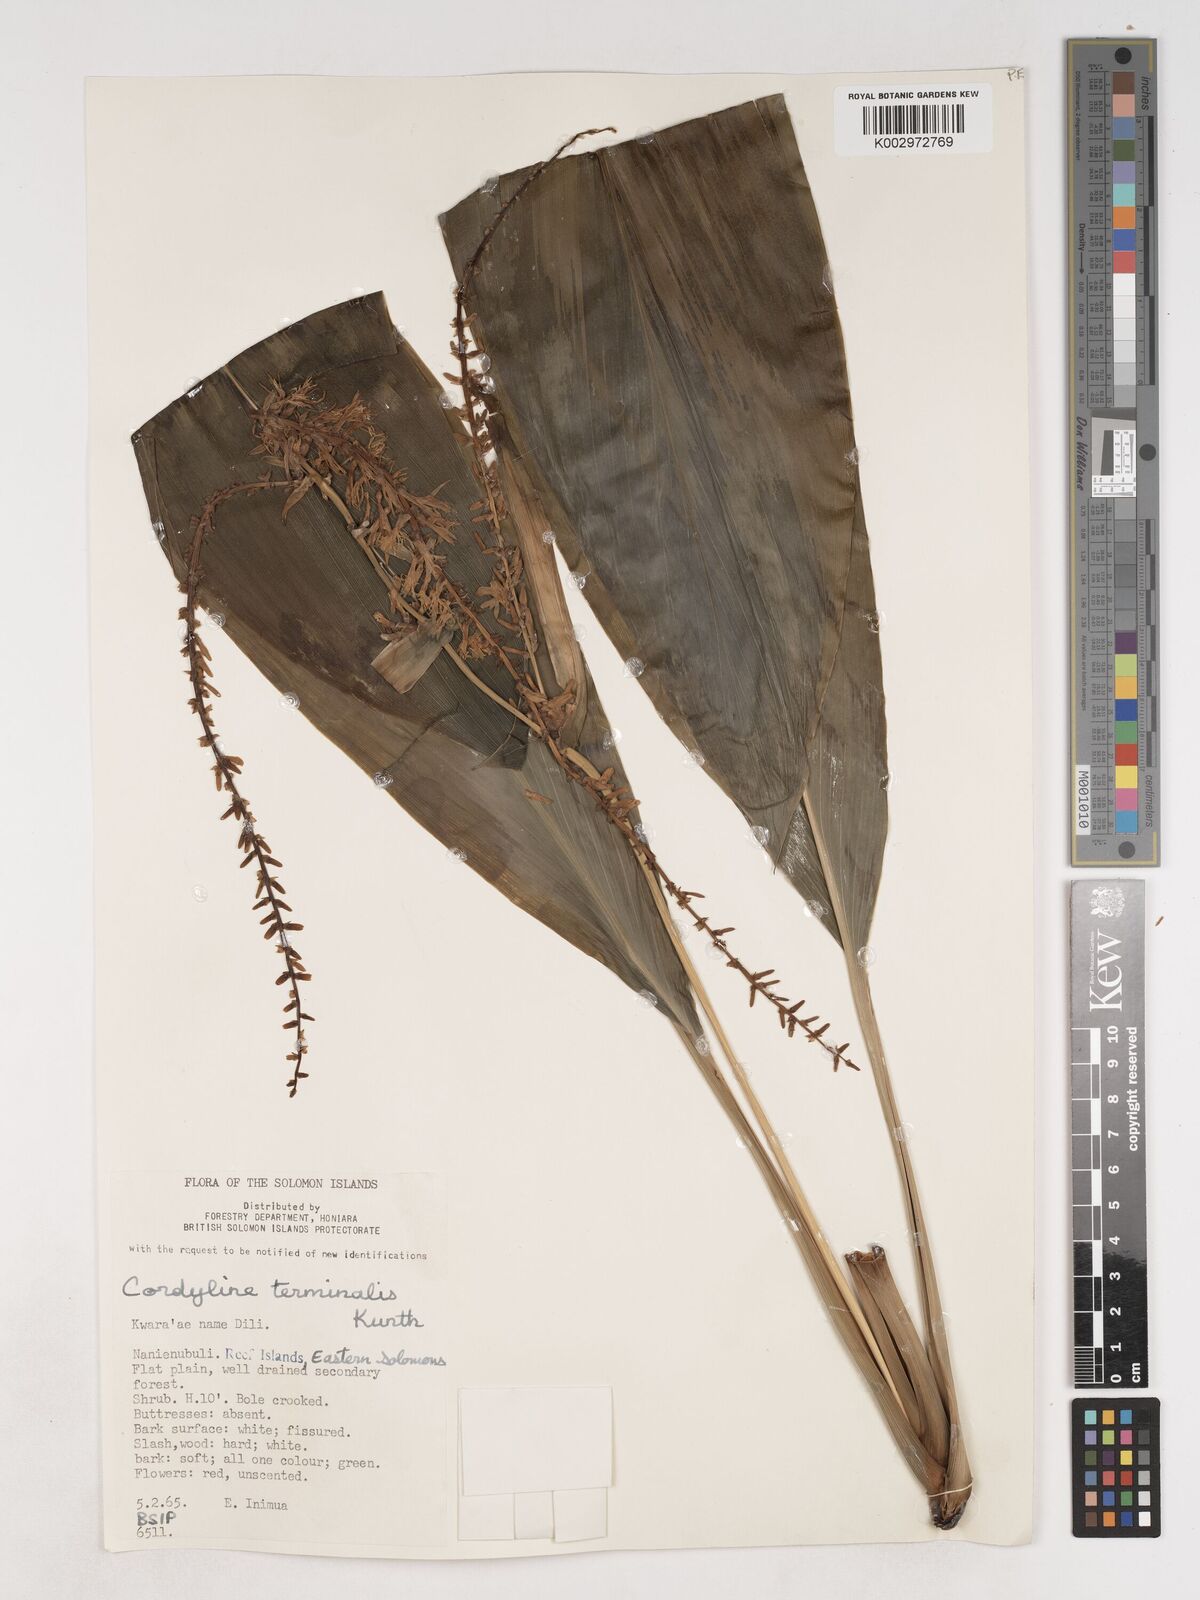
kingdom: Plantae
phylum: Tracheophyta
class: Liliopsida
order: Asparagales
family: Asparagaceae
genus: Cordyline
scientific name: Cordyline fruticosa
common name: Good-luck-plant
